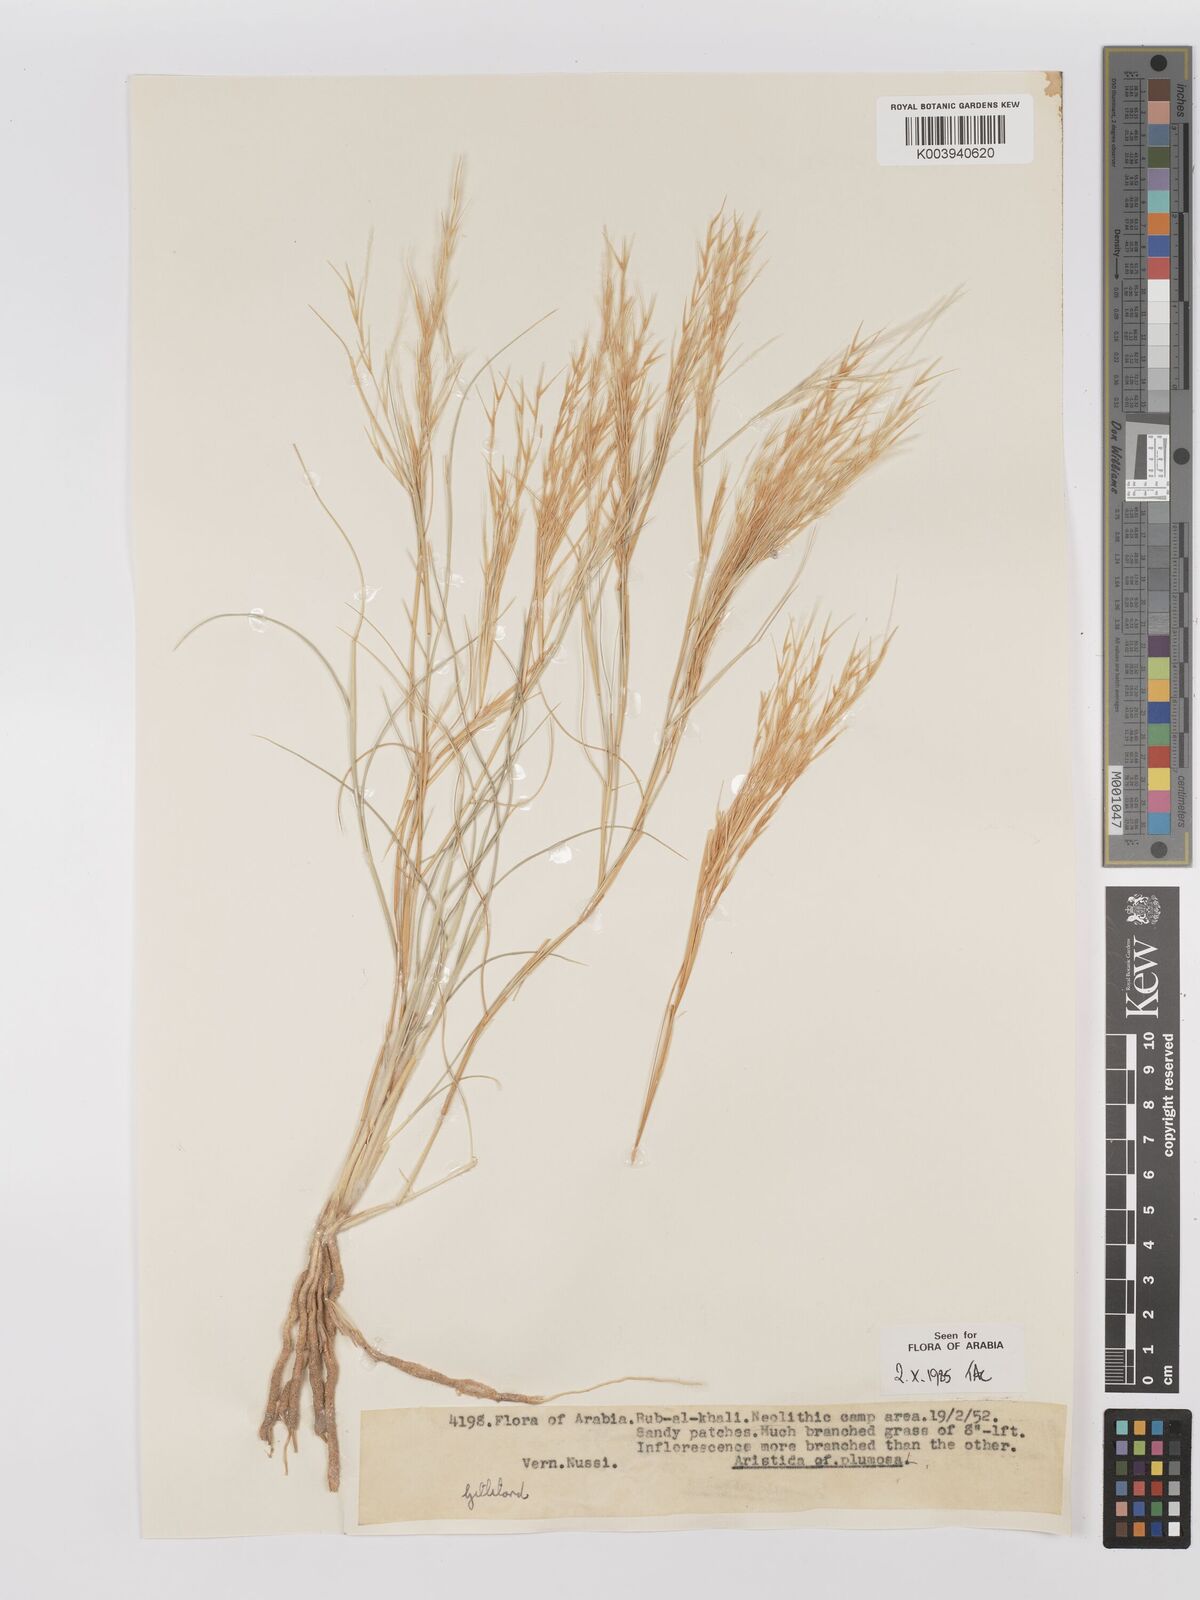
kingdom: Plantae
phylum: Tracheophyta
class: Liliopsida
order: Poales
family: Poaceae
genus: Stipagrostis
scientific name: Stipagrostis plumosa
